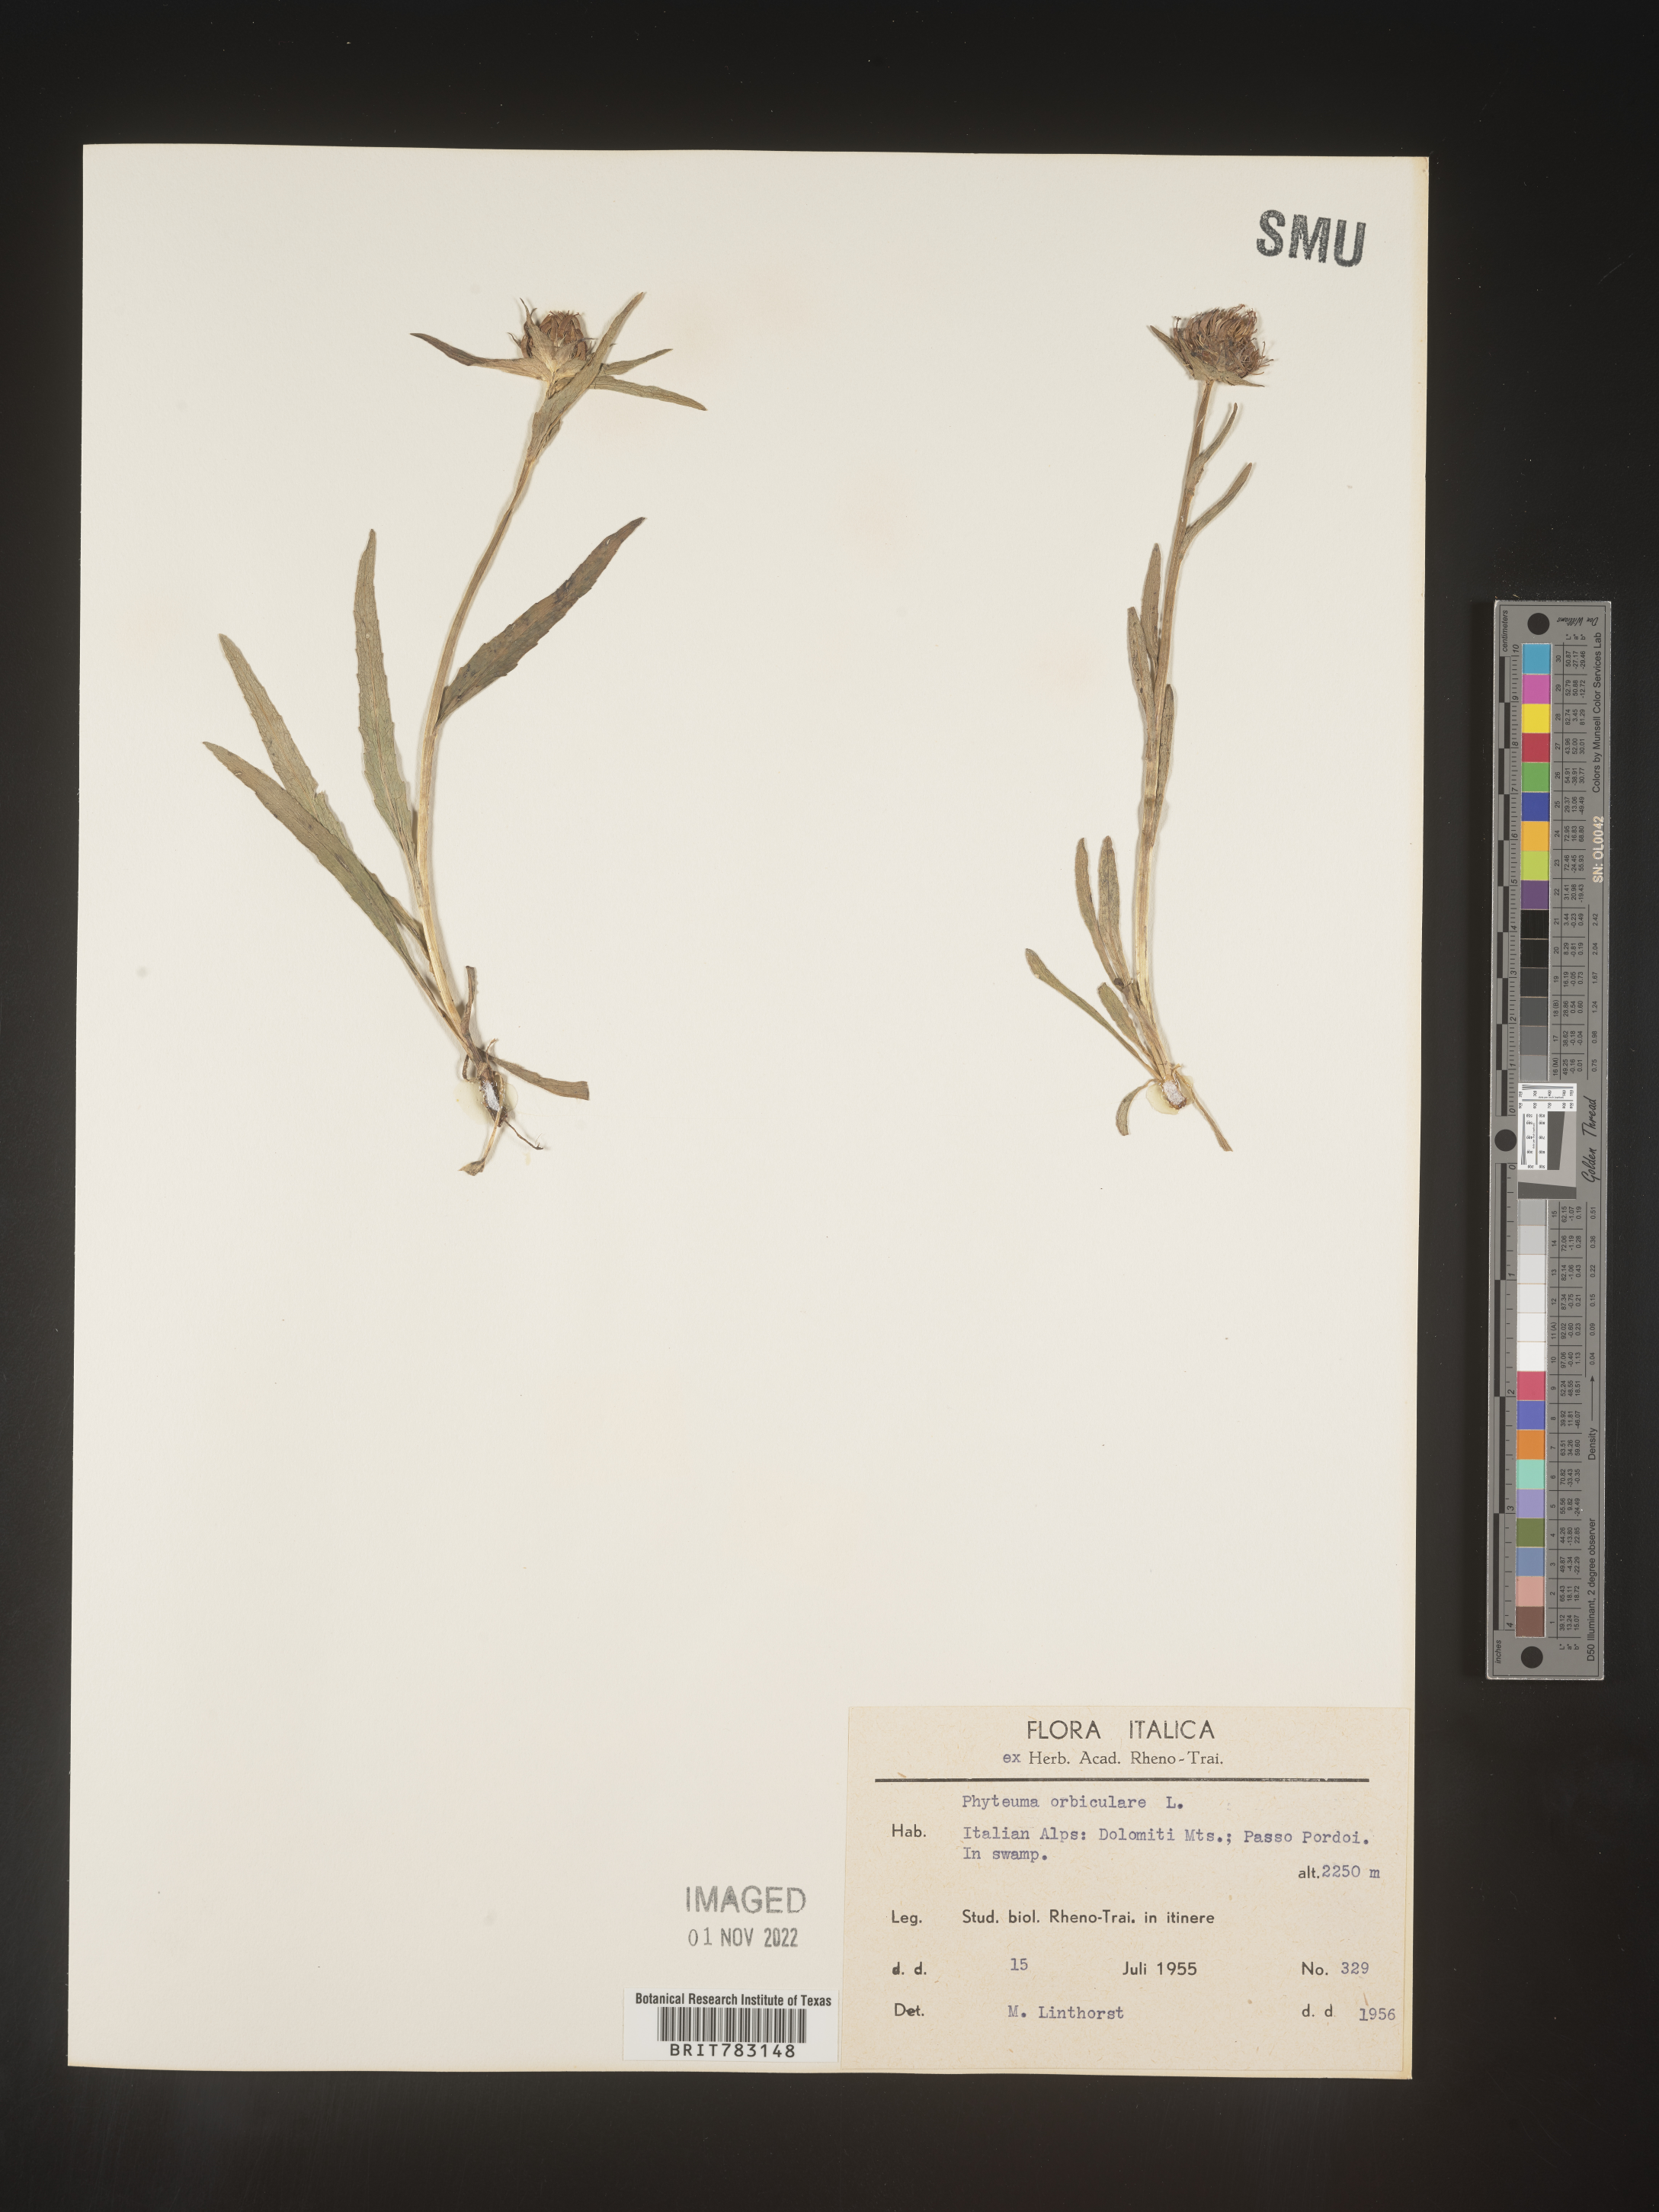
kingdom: Plantae
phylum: Tracheophyta
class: Magnoliopsida
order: Asterales
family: Campanulaceae
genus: Phyteuma
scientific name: Phyteuma
